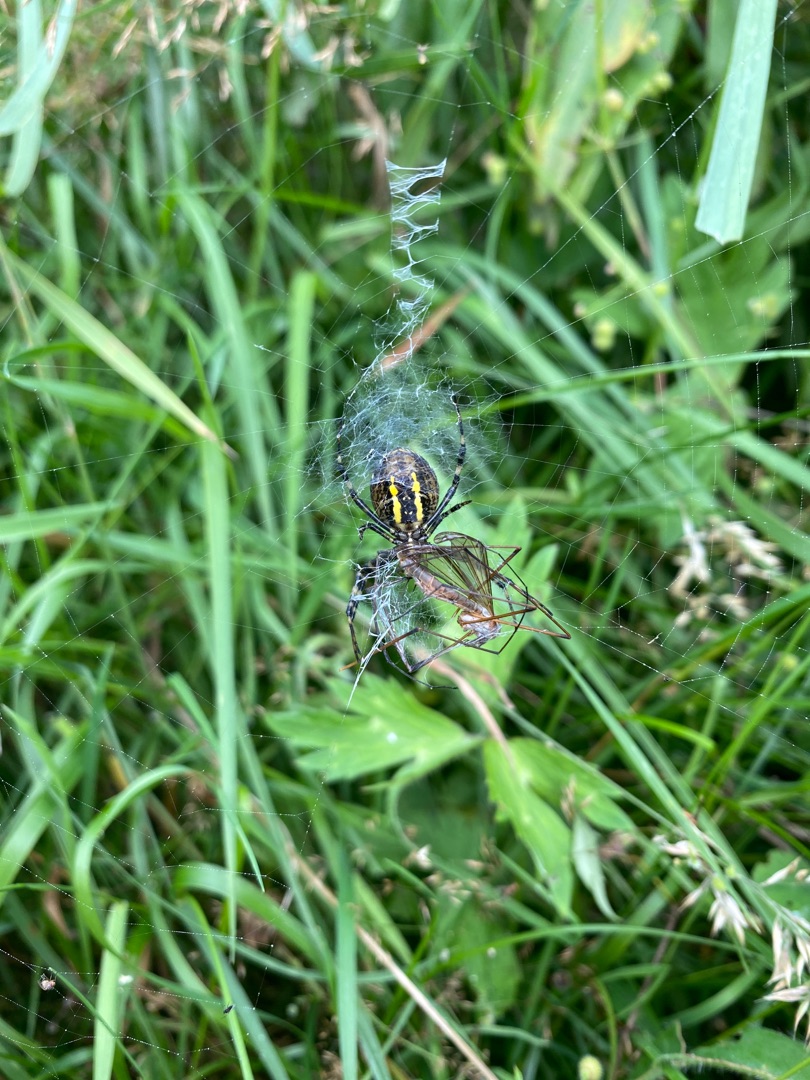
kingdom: Animalia
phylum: Arthropoda
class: Arachnida
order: Araneae
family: Araneidae
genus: Argiope
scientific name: Argiope bruennichi
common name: Hvepseedderkop
